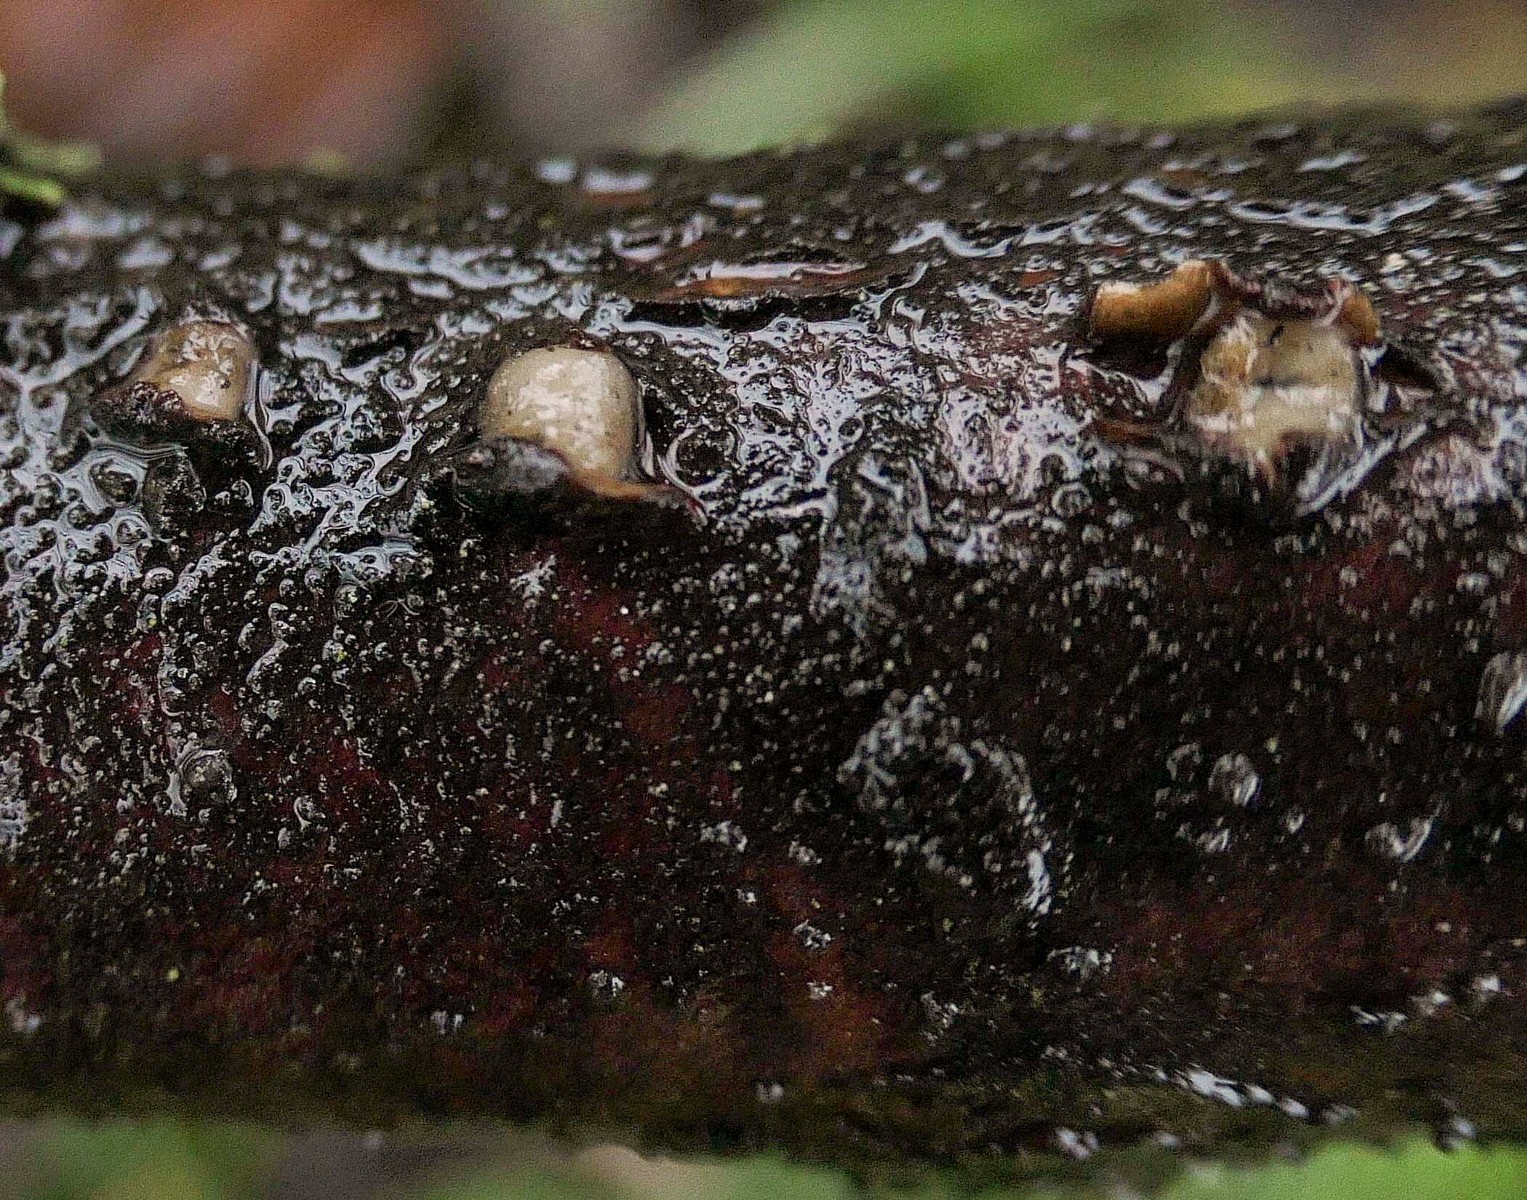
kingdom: Fungi
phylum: Basidiomycota
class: Pucciniomycetes
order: Platygloeales
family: Platygloeaceae
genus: Platygloea
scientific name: Platygloea disciformis
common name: linde-slimklat
